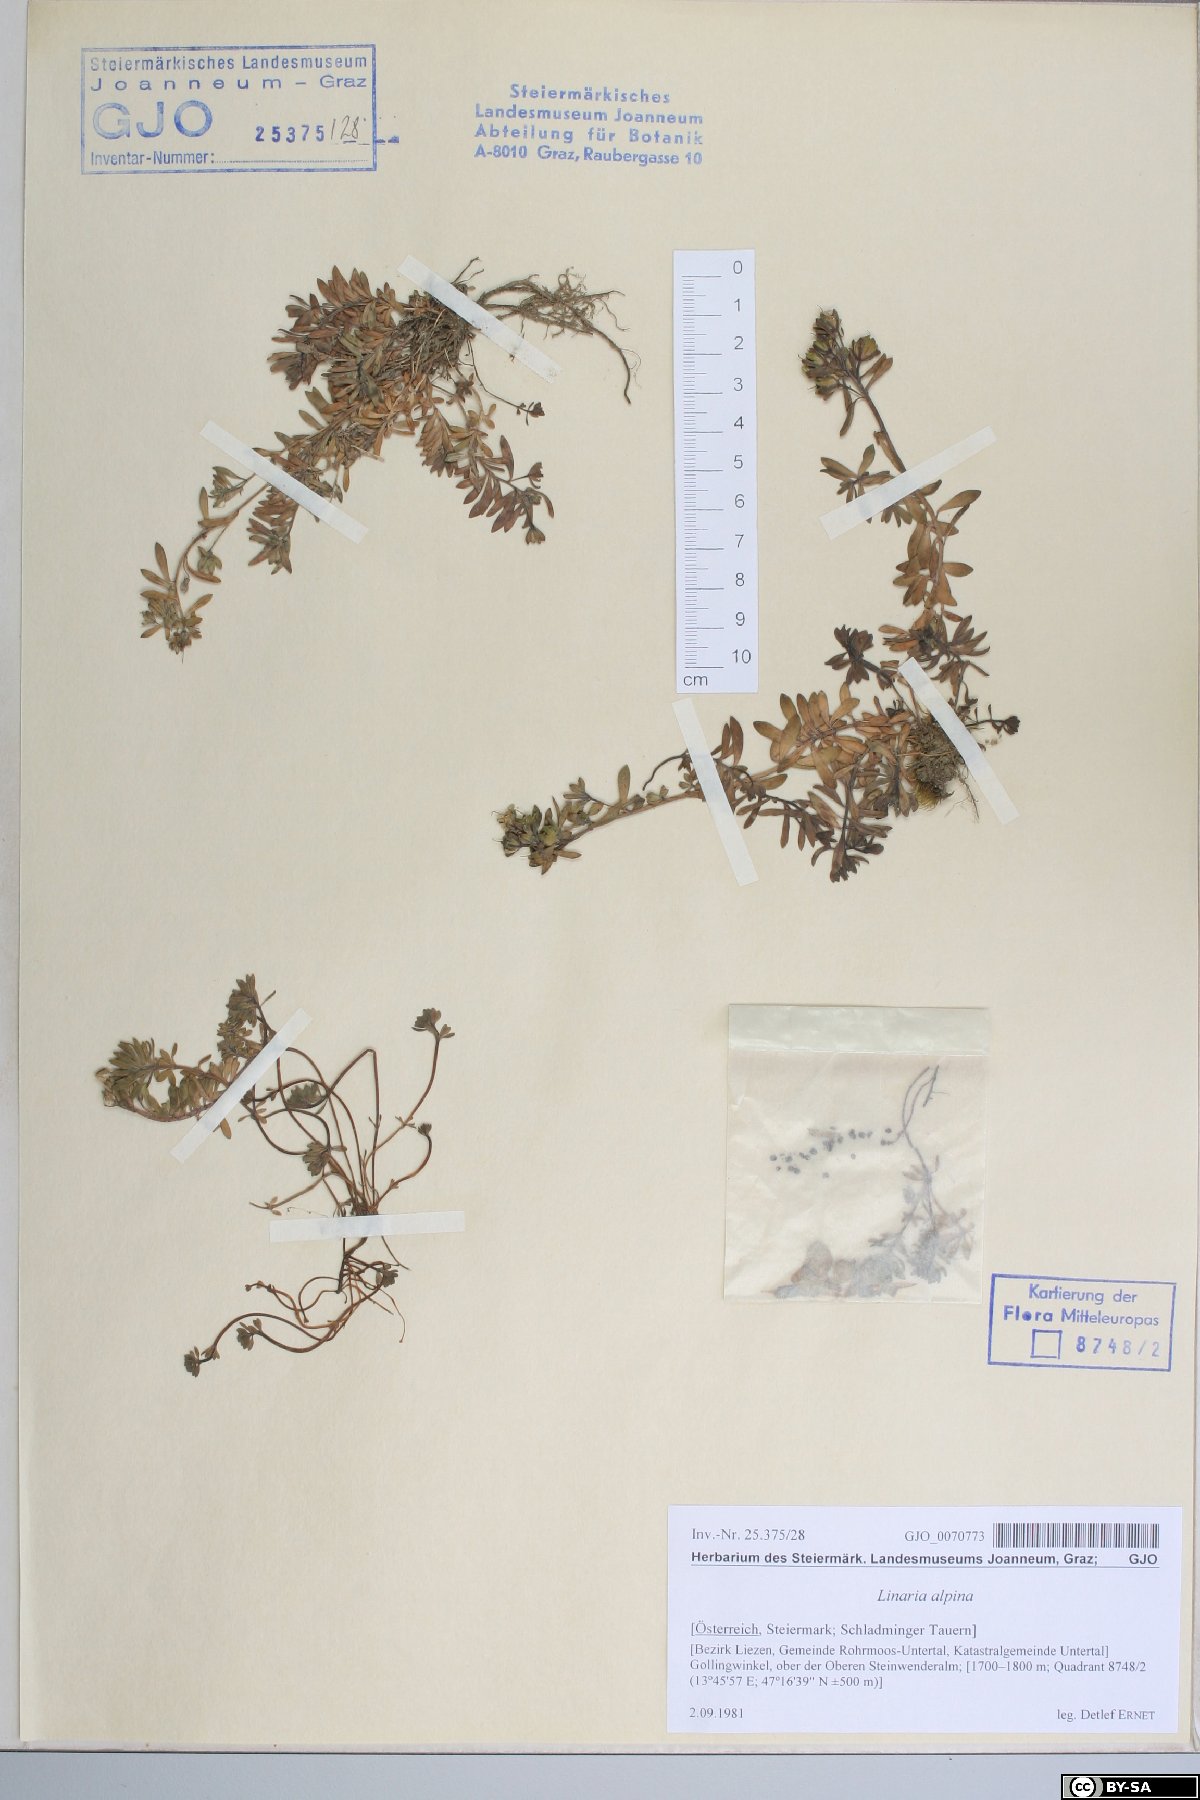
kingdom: Plantae
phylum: Tracheophyta
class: Magnoliopsida
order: Lamiales
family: Plantaginaceae
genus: Linaria
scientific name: Linaria alpina
